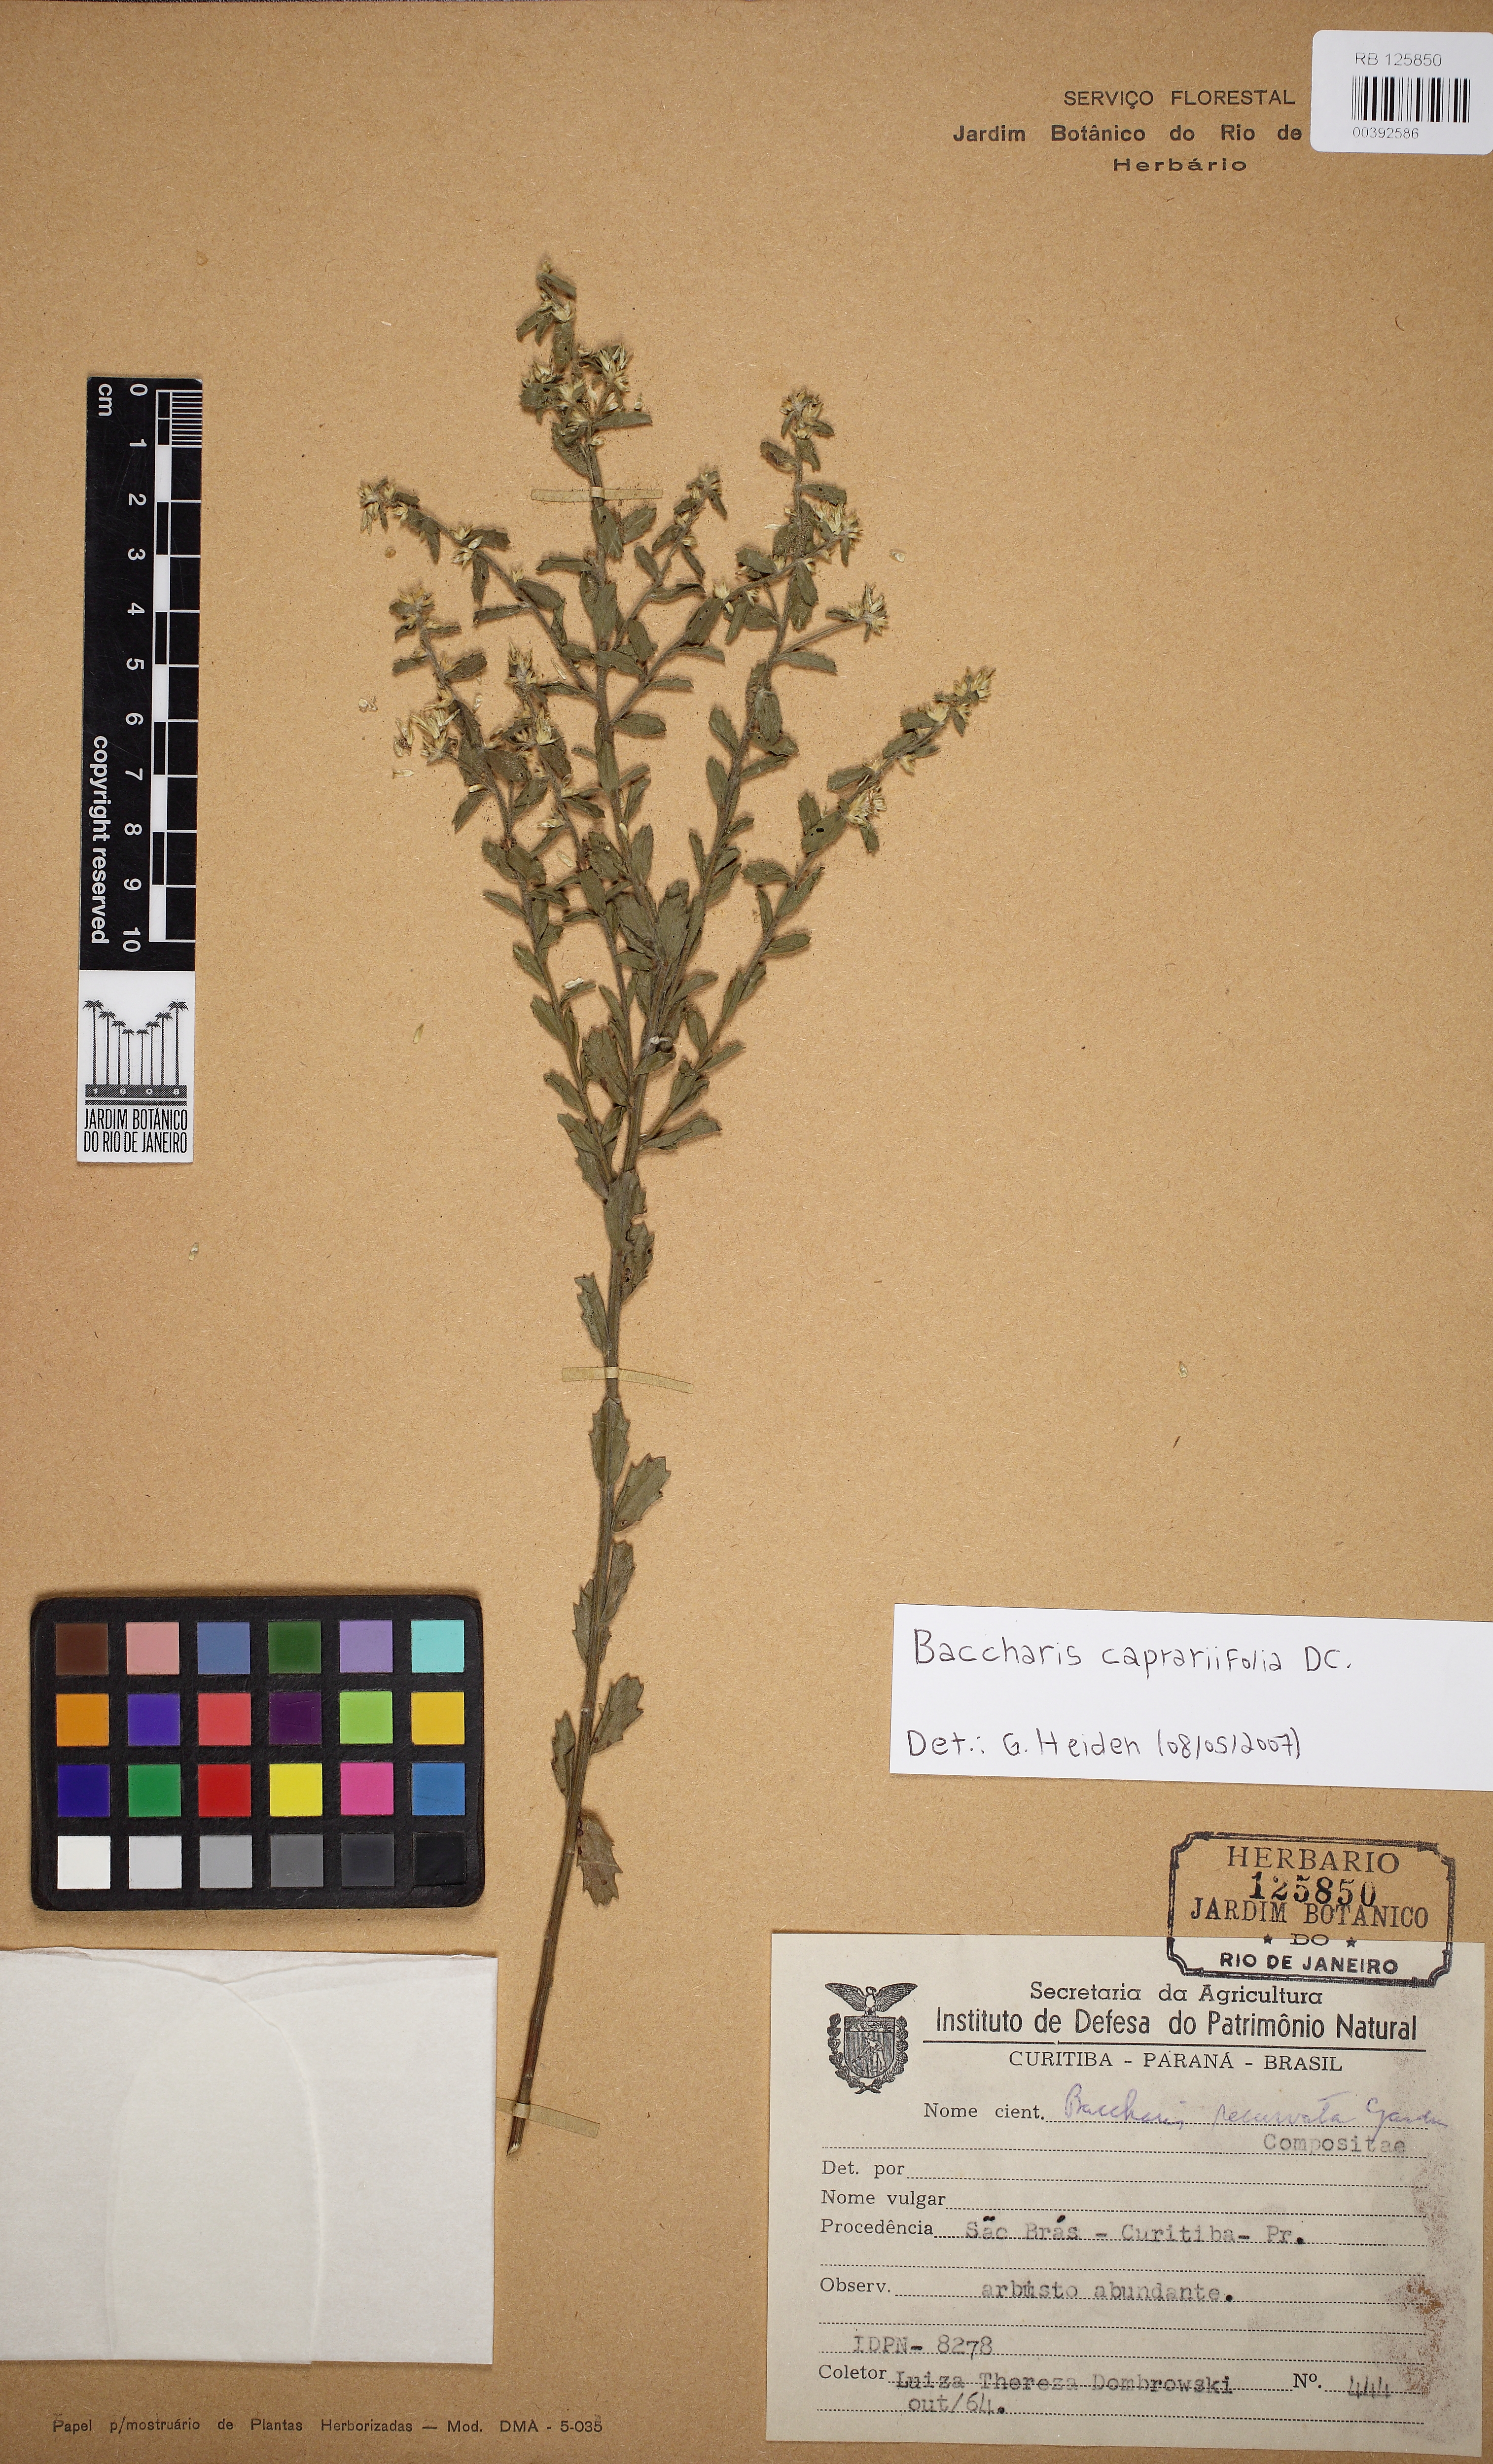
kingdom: Plantae
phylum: Tracheophyta
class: Magnoliopsida
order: Asterales
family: Asteraceae
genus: Baccharis
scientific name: Baccharis caprariifolia
